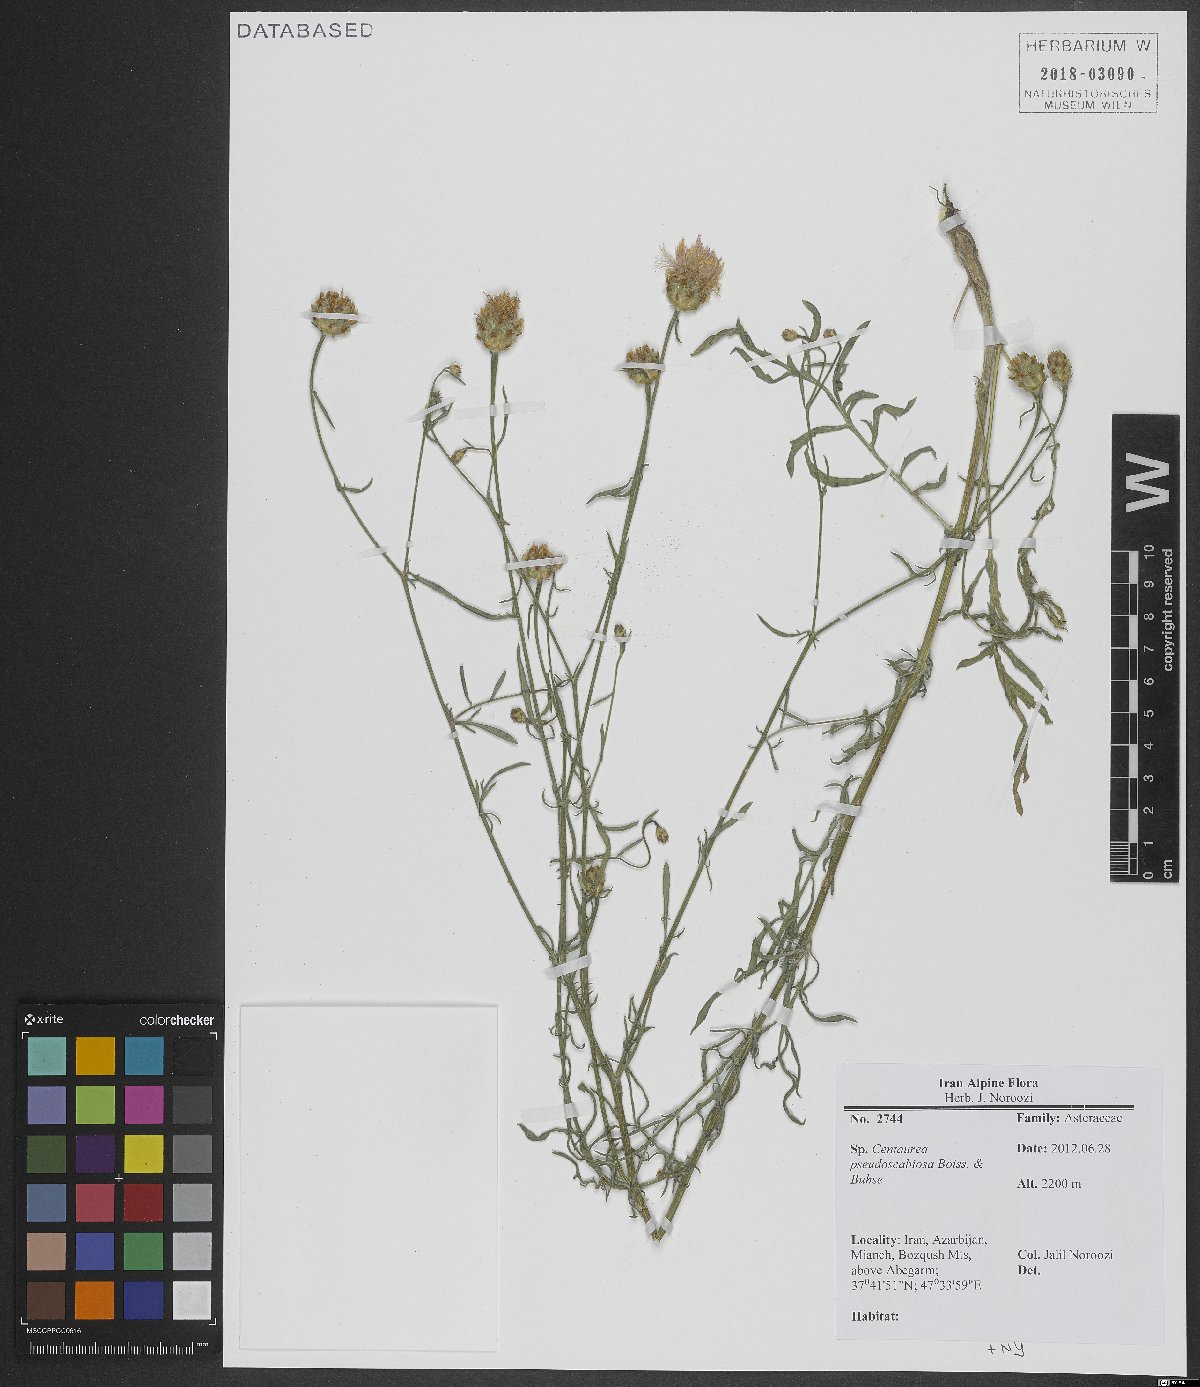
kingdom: Plantae
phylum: Tracheophyta
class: Magnoliopsida
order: Asterales
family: Asteraceae
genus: Centaurea
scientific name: Centaurea pseudoscabiosa
